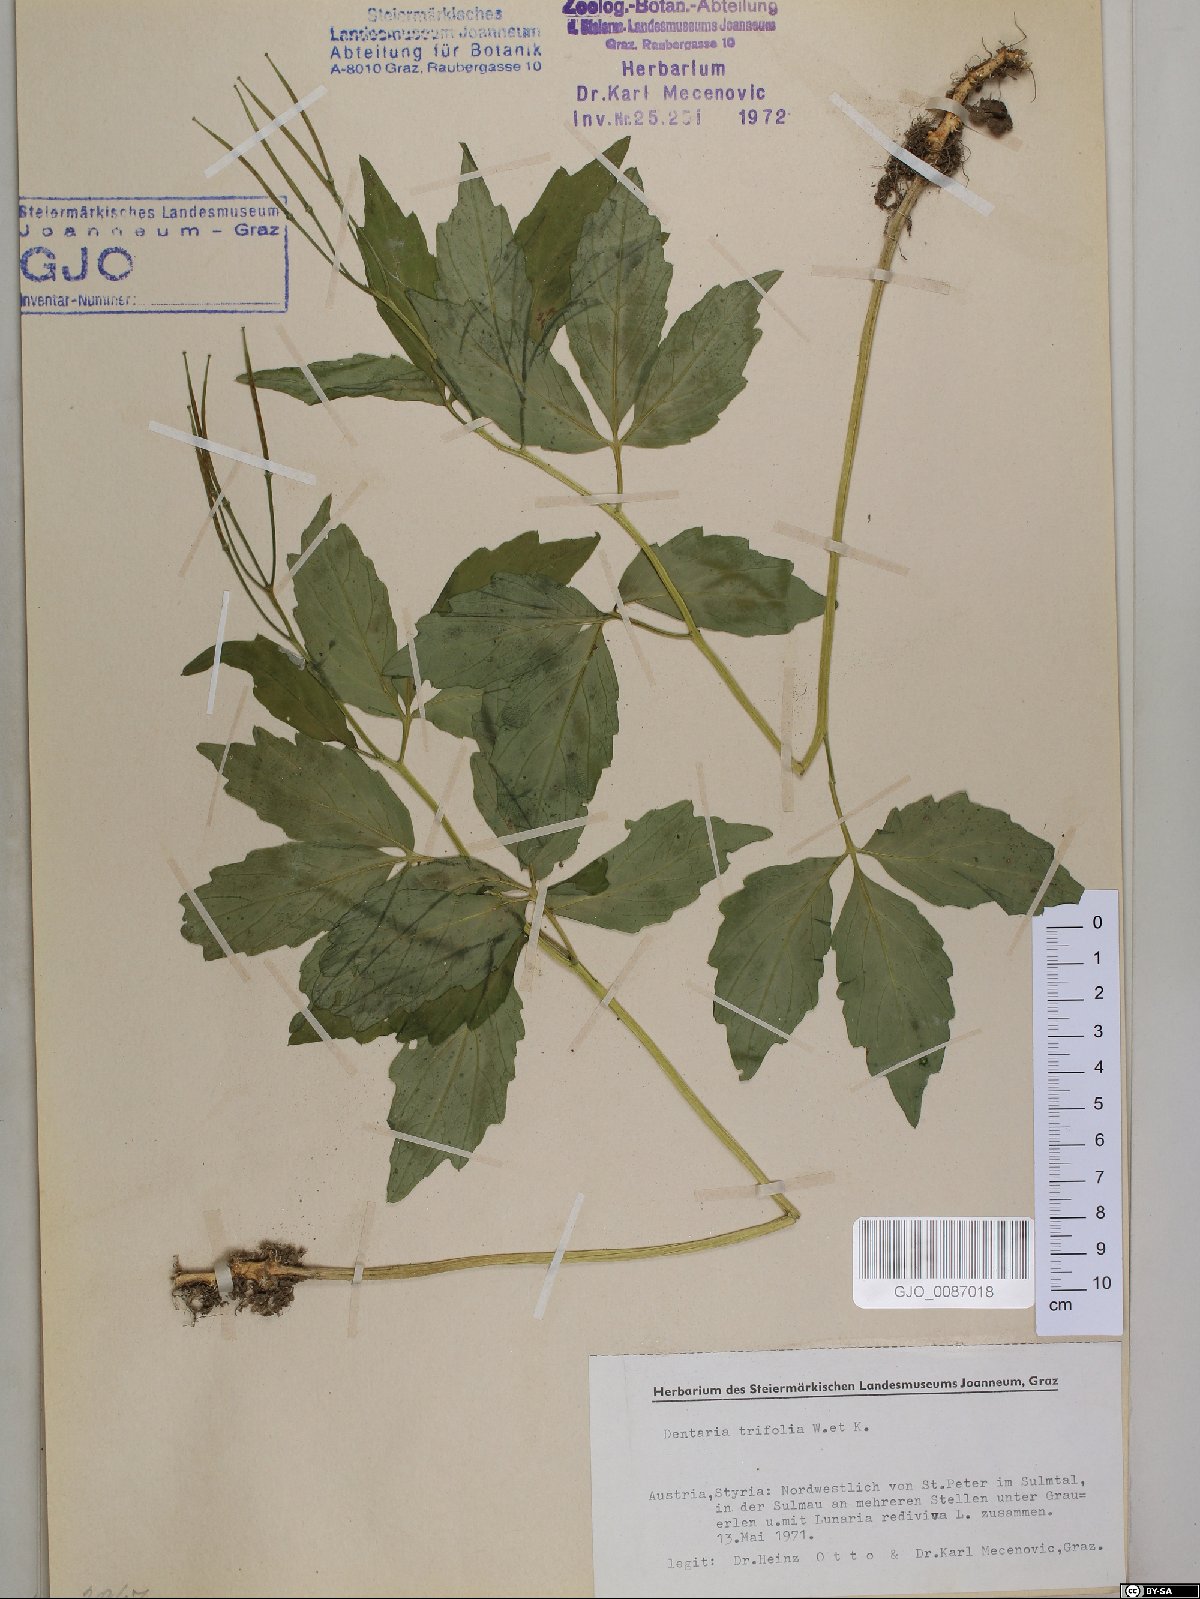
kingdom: Plantae
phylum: Tracheophyta
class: Magnoliopsida
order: Brassicales
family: Brassicaceae
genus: Cardamine
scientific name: Cardamine waldsteinii
